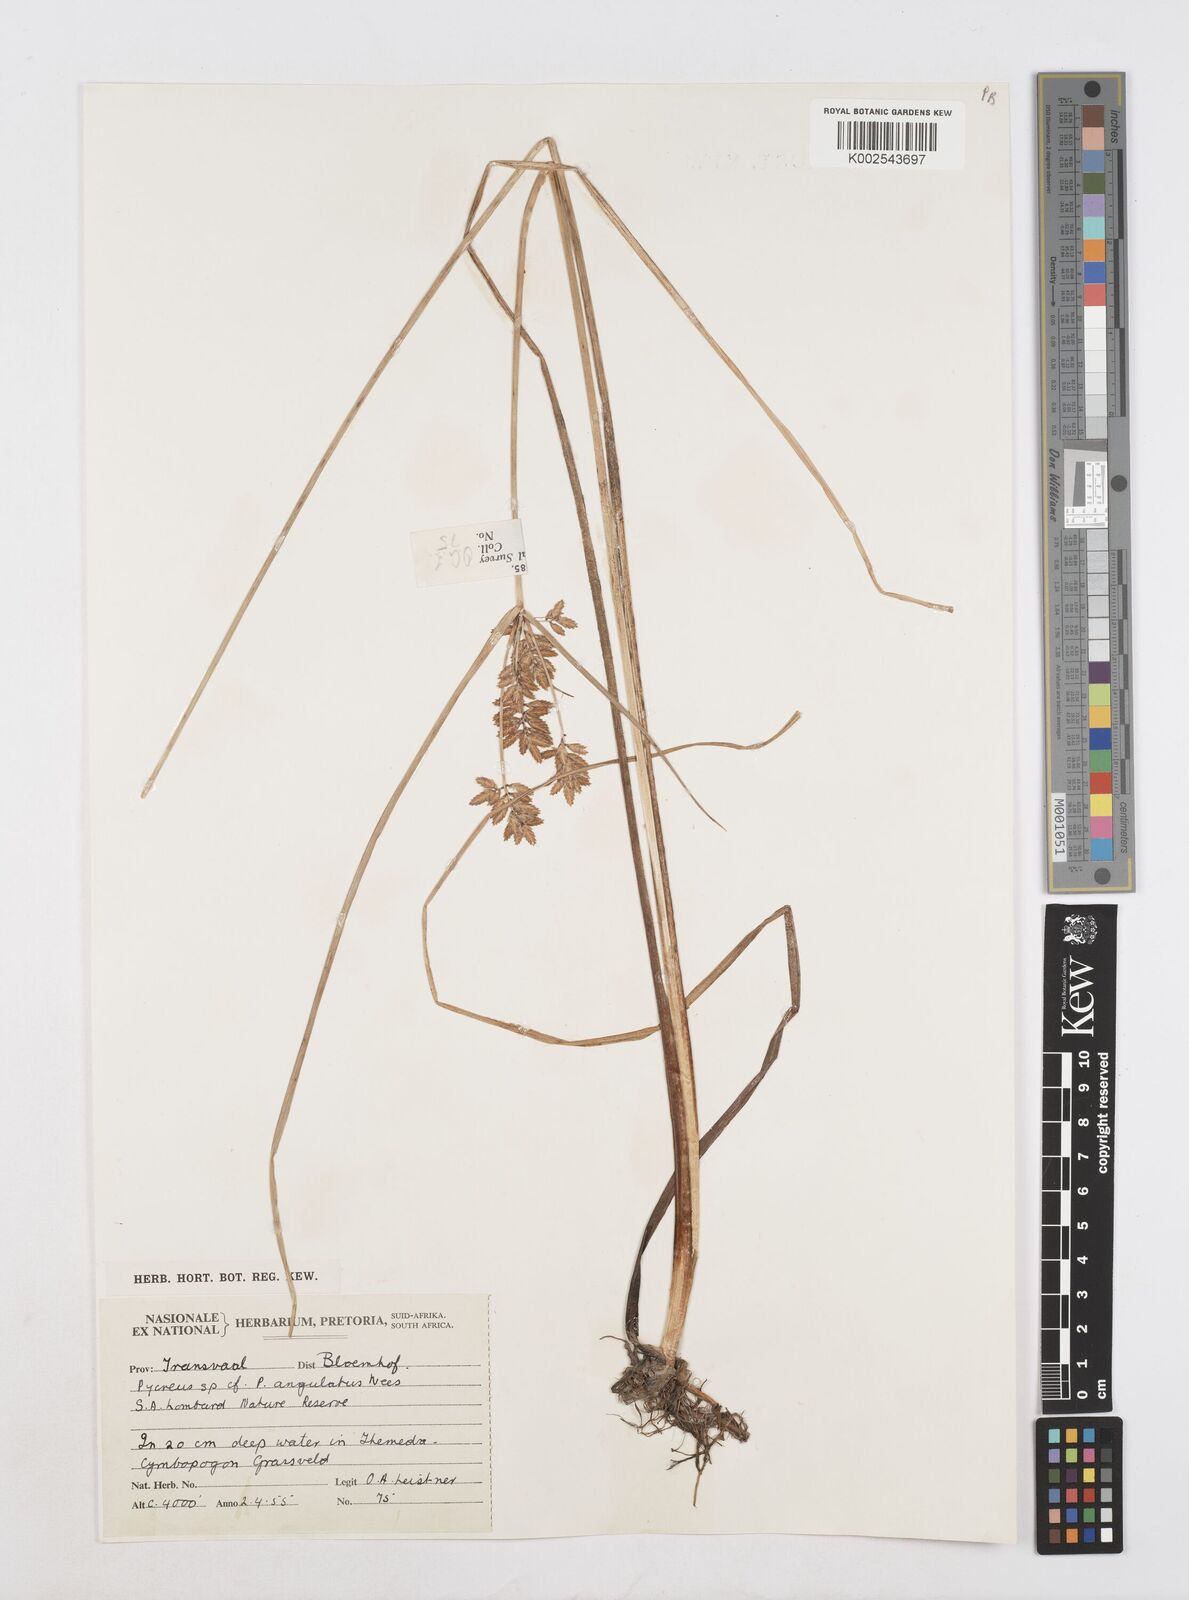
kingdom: Plantae
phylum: Tracheophyta
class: Liliopsida
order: Poales
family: Cyperaceae
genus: Cyperus
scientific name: Cyperus chrysanthus
